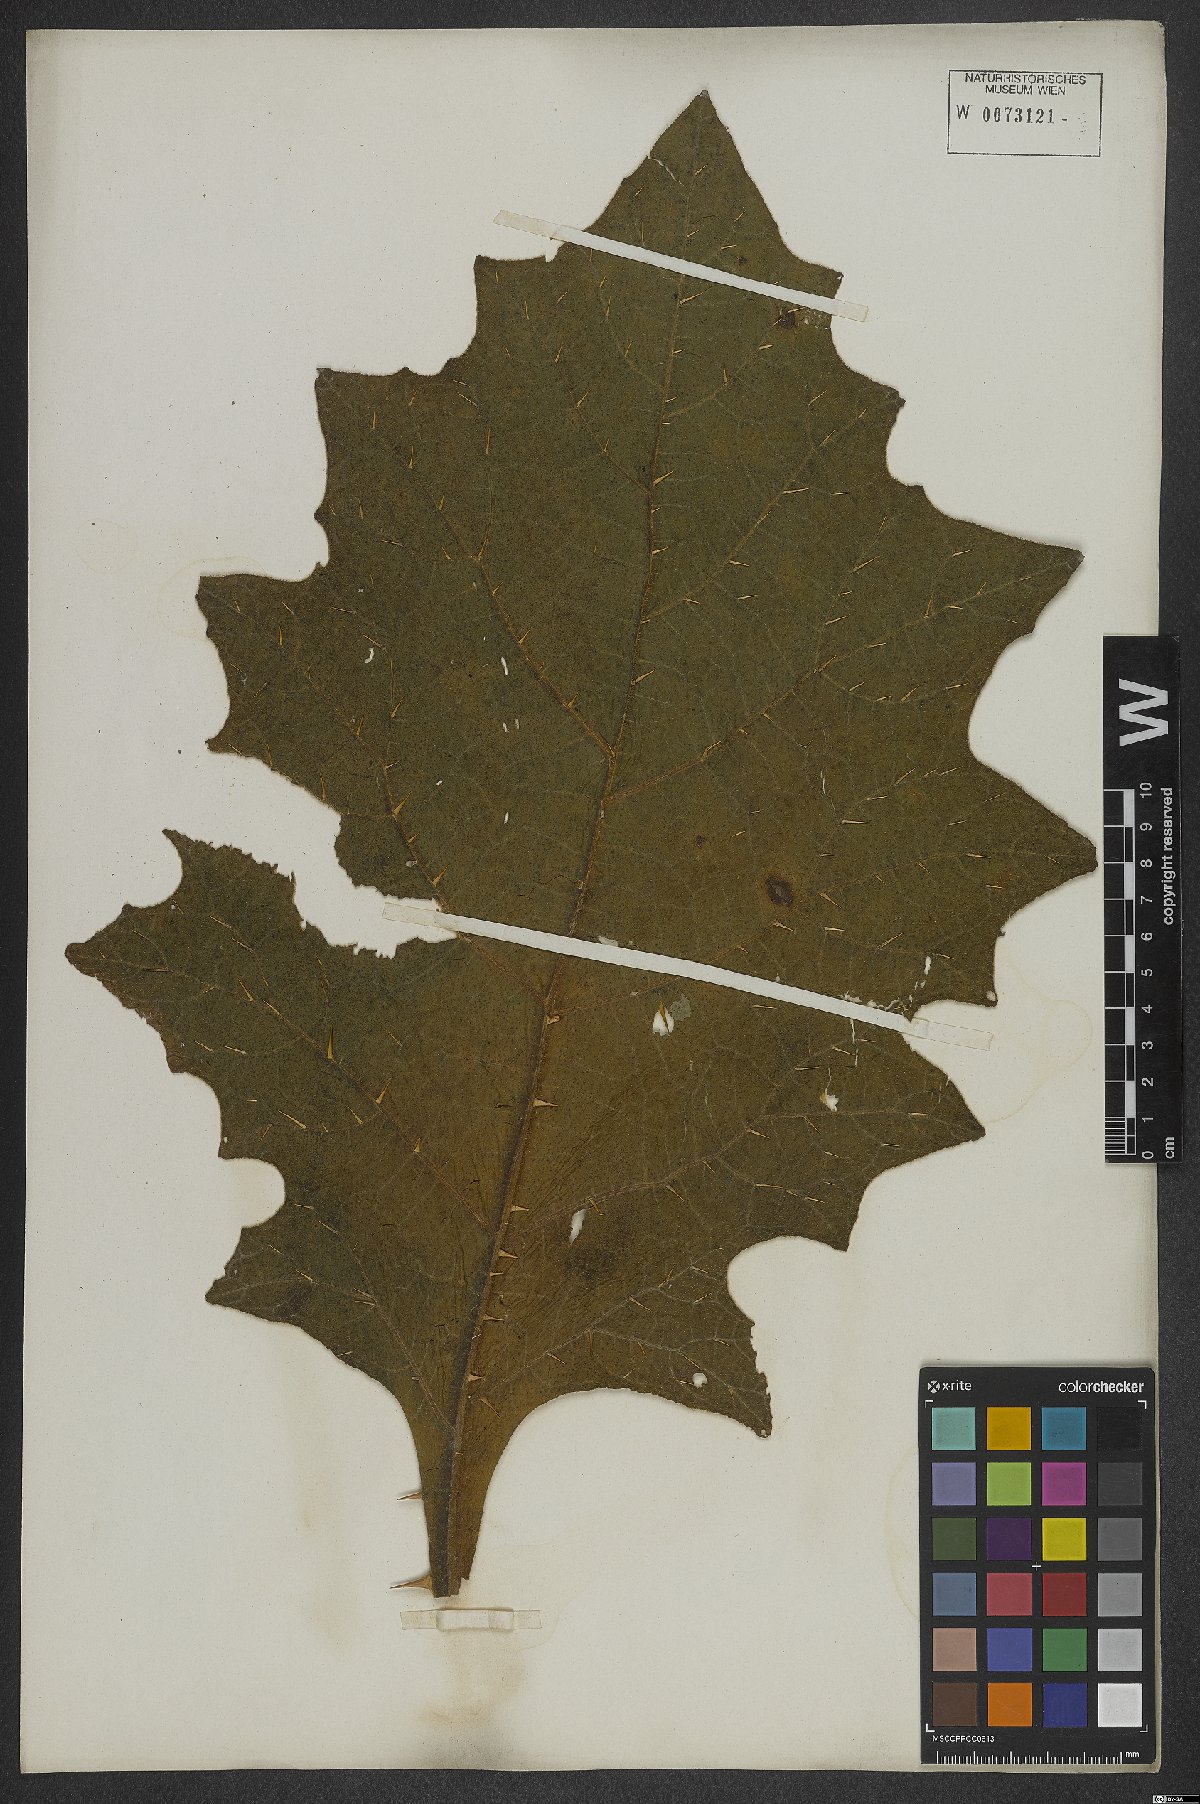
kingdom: Plantae
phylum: Tracheophyta
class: Magnoliopsida
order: Solanales
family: Solanaceae
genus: Solanum
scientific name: Solanum hexandrum
